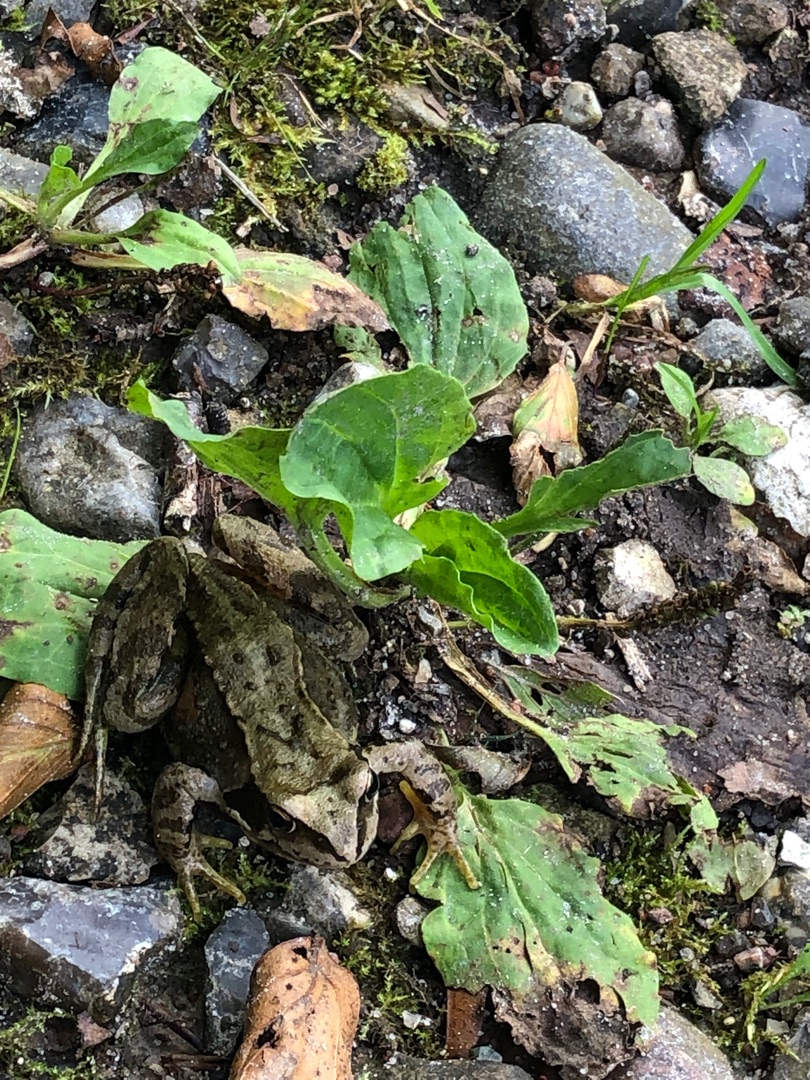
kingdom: Animalia
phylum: Chordata
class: Amphibia
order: Anura
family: Ranidae
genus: Rana
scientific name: Rana temporaria
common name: Butsnudet frø
